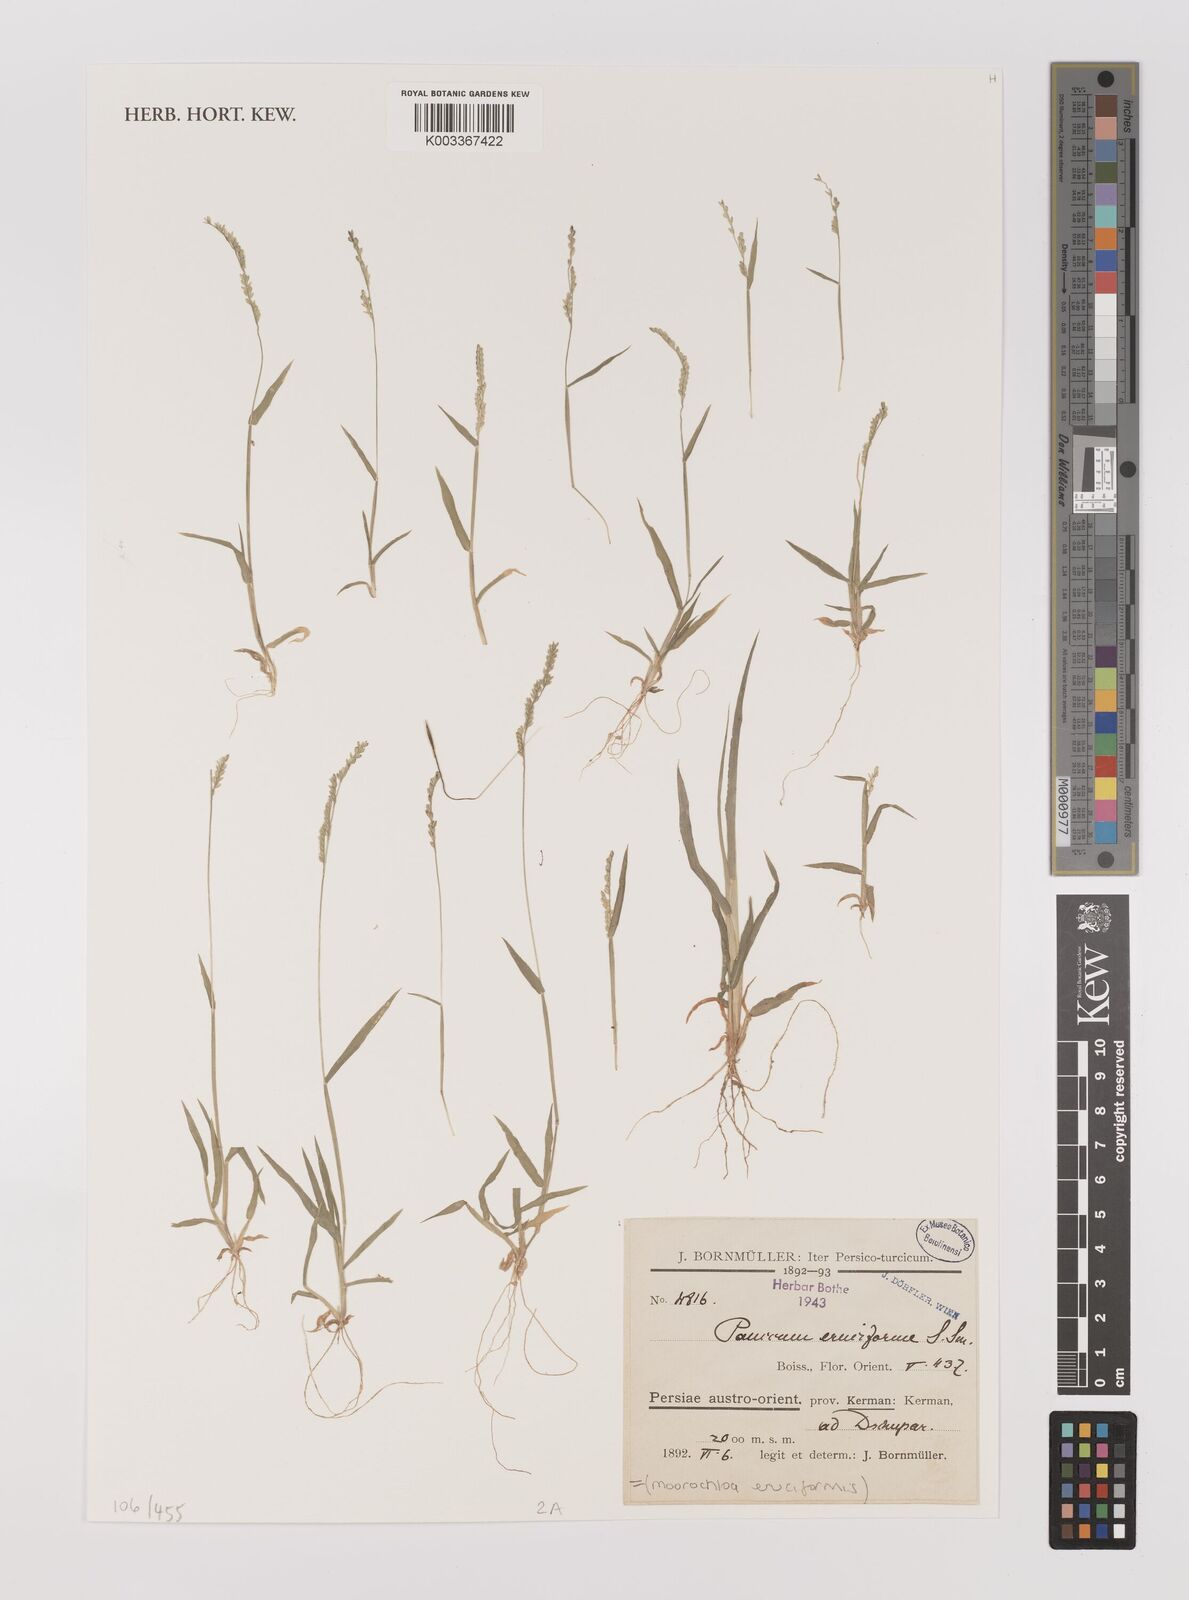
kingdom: Plantae
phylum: Tracheophyta
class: Liliopsida
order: Poales
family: Poaceae
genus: Moorochloa
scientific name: Moorochloa eruciformis
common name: Sweet signalgrass
